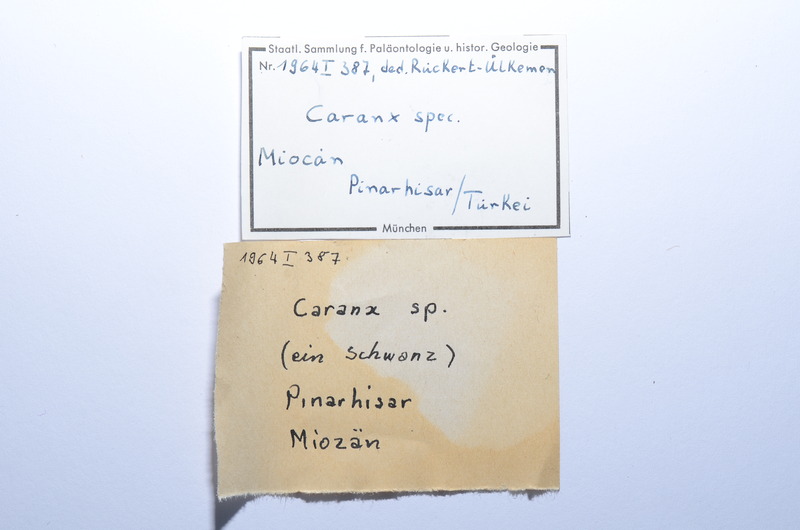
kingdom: Animalia
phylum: Chordata
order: Perciformes
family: Carangidae
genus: Caranx
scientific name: Caranx
